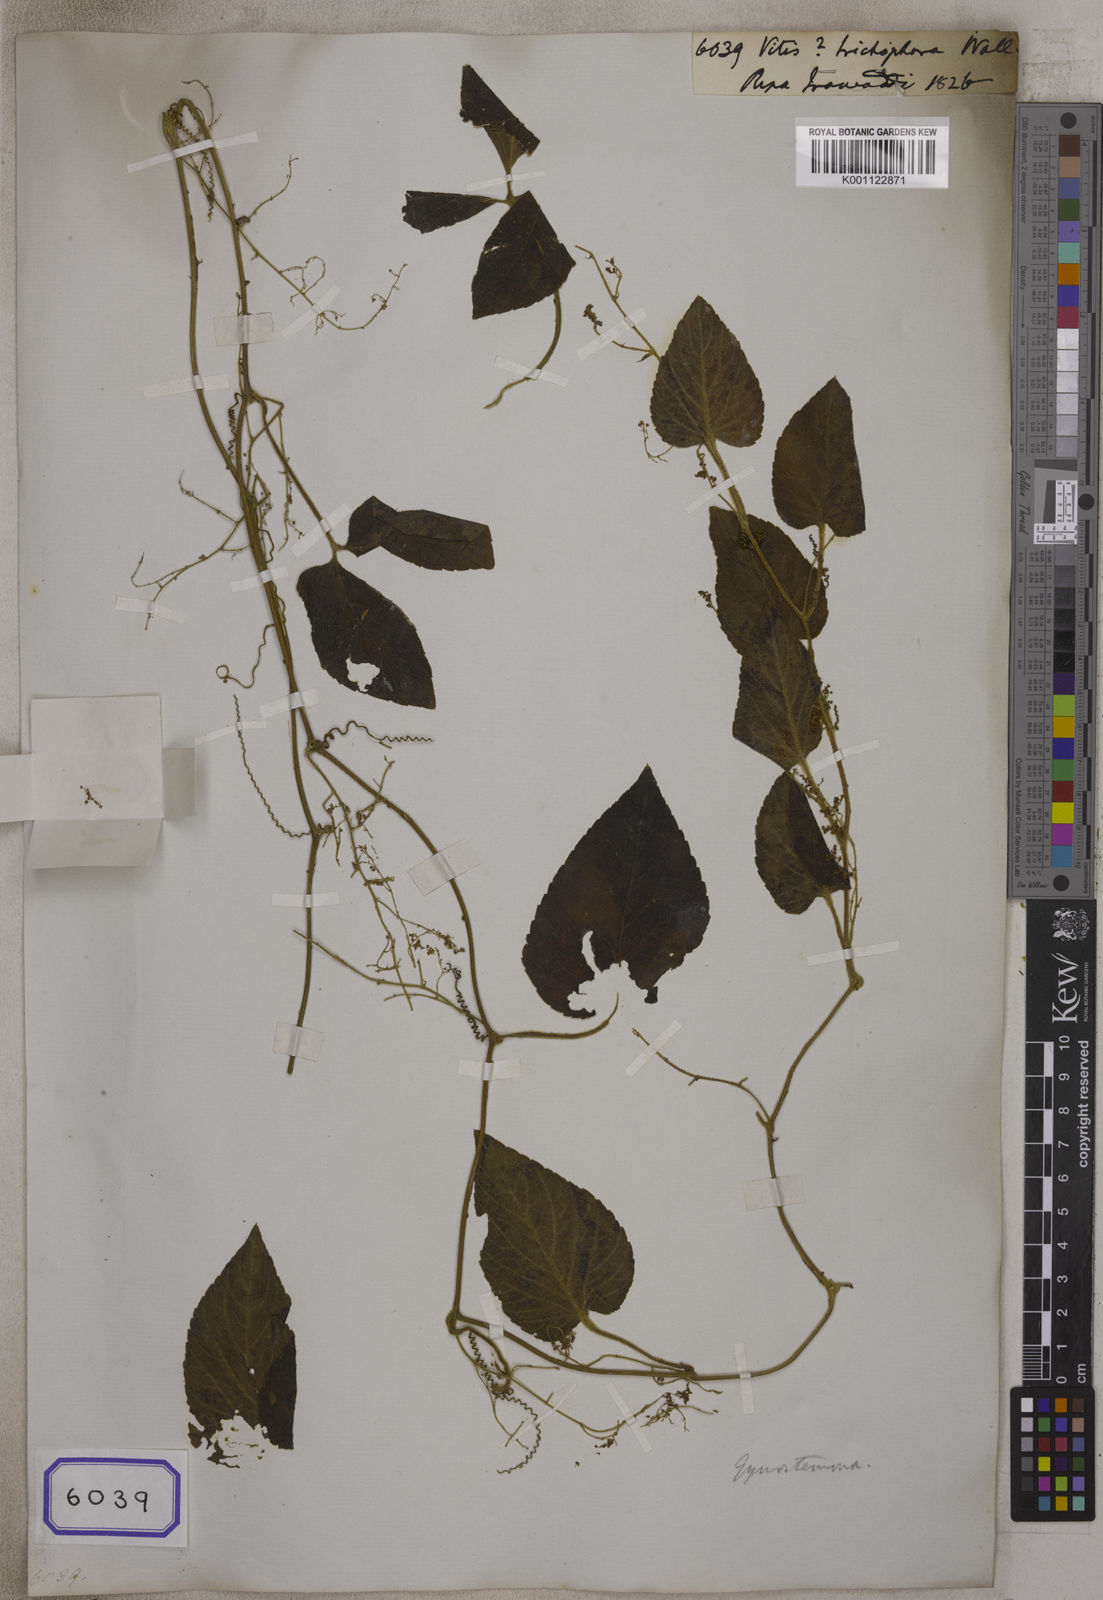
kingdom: Plantae
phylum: Tracheophyta
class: Magnoliopsida
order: Cucurbitales
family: Cucurbitaceae
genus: Gynostemma
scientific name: Gynostemma pentaphyllum
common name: Gynostemma
